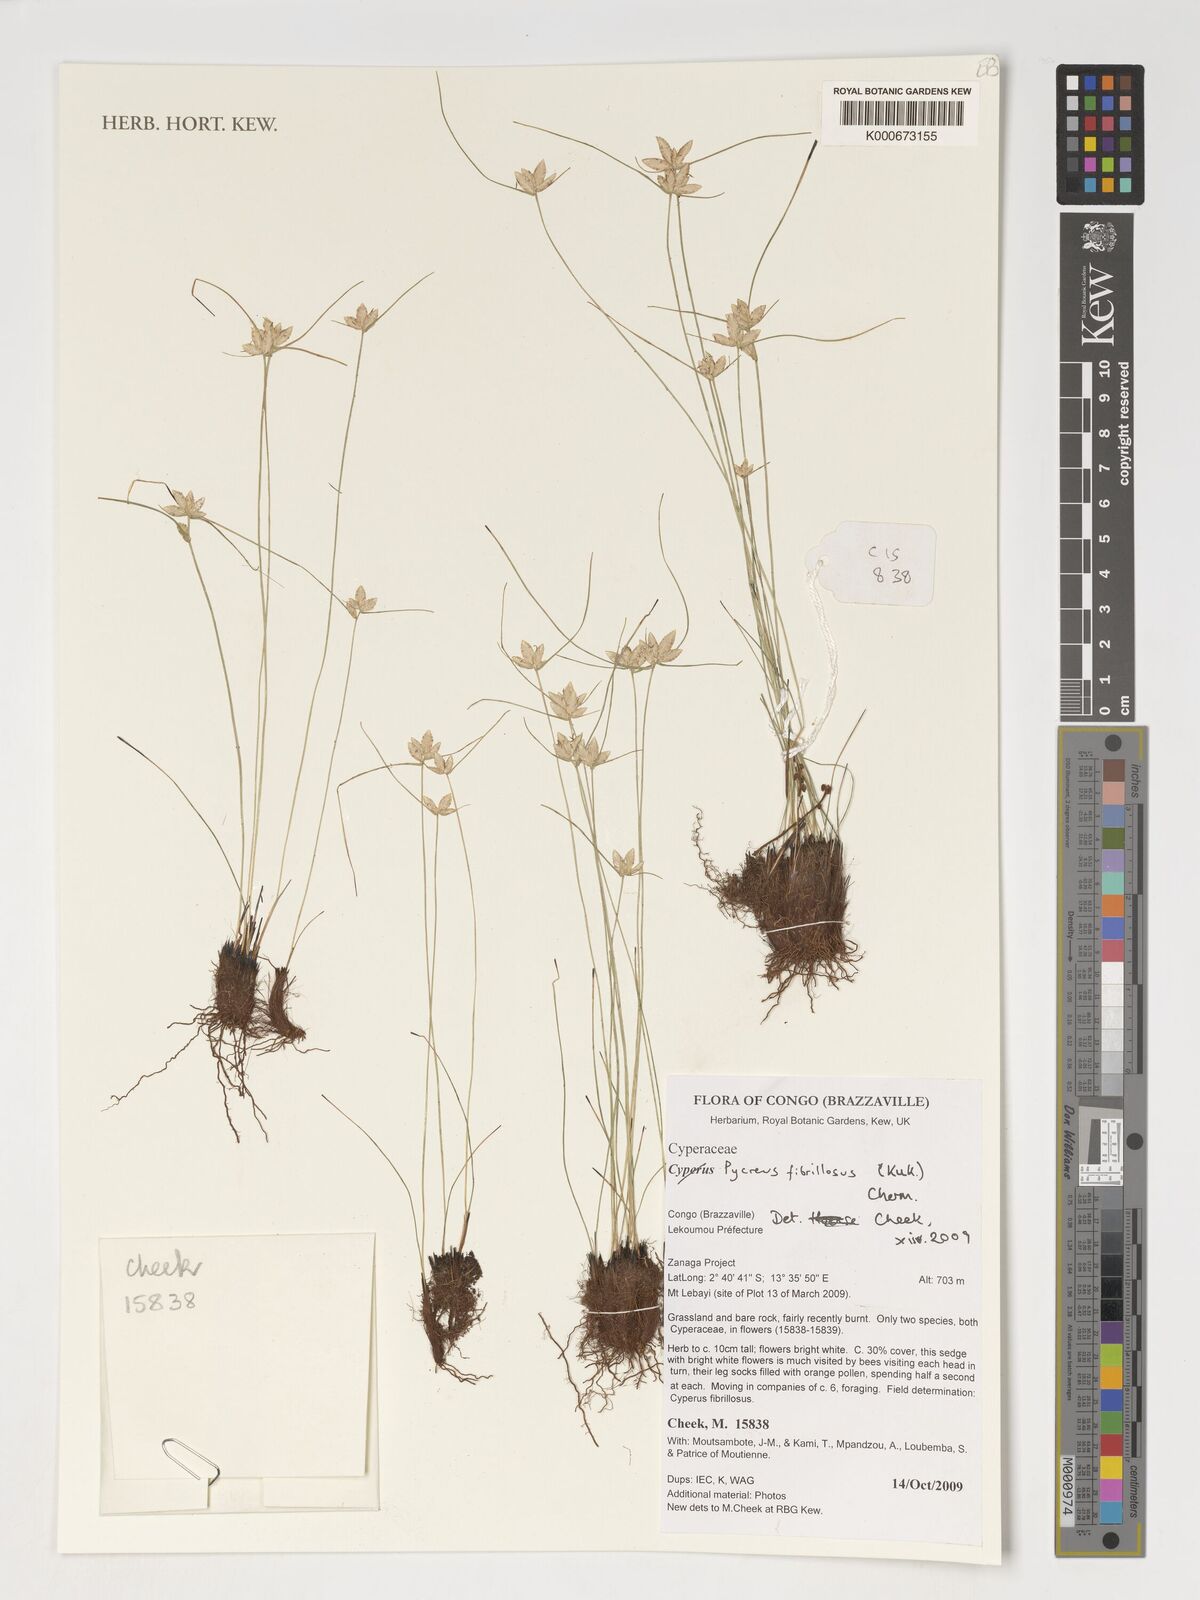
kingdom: Plantae
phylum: Tracheophyta
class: Liliopsida
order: Poales
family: Cyperaceae
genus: Cyperus
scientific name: Cyperus nigricans
